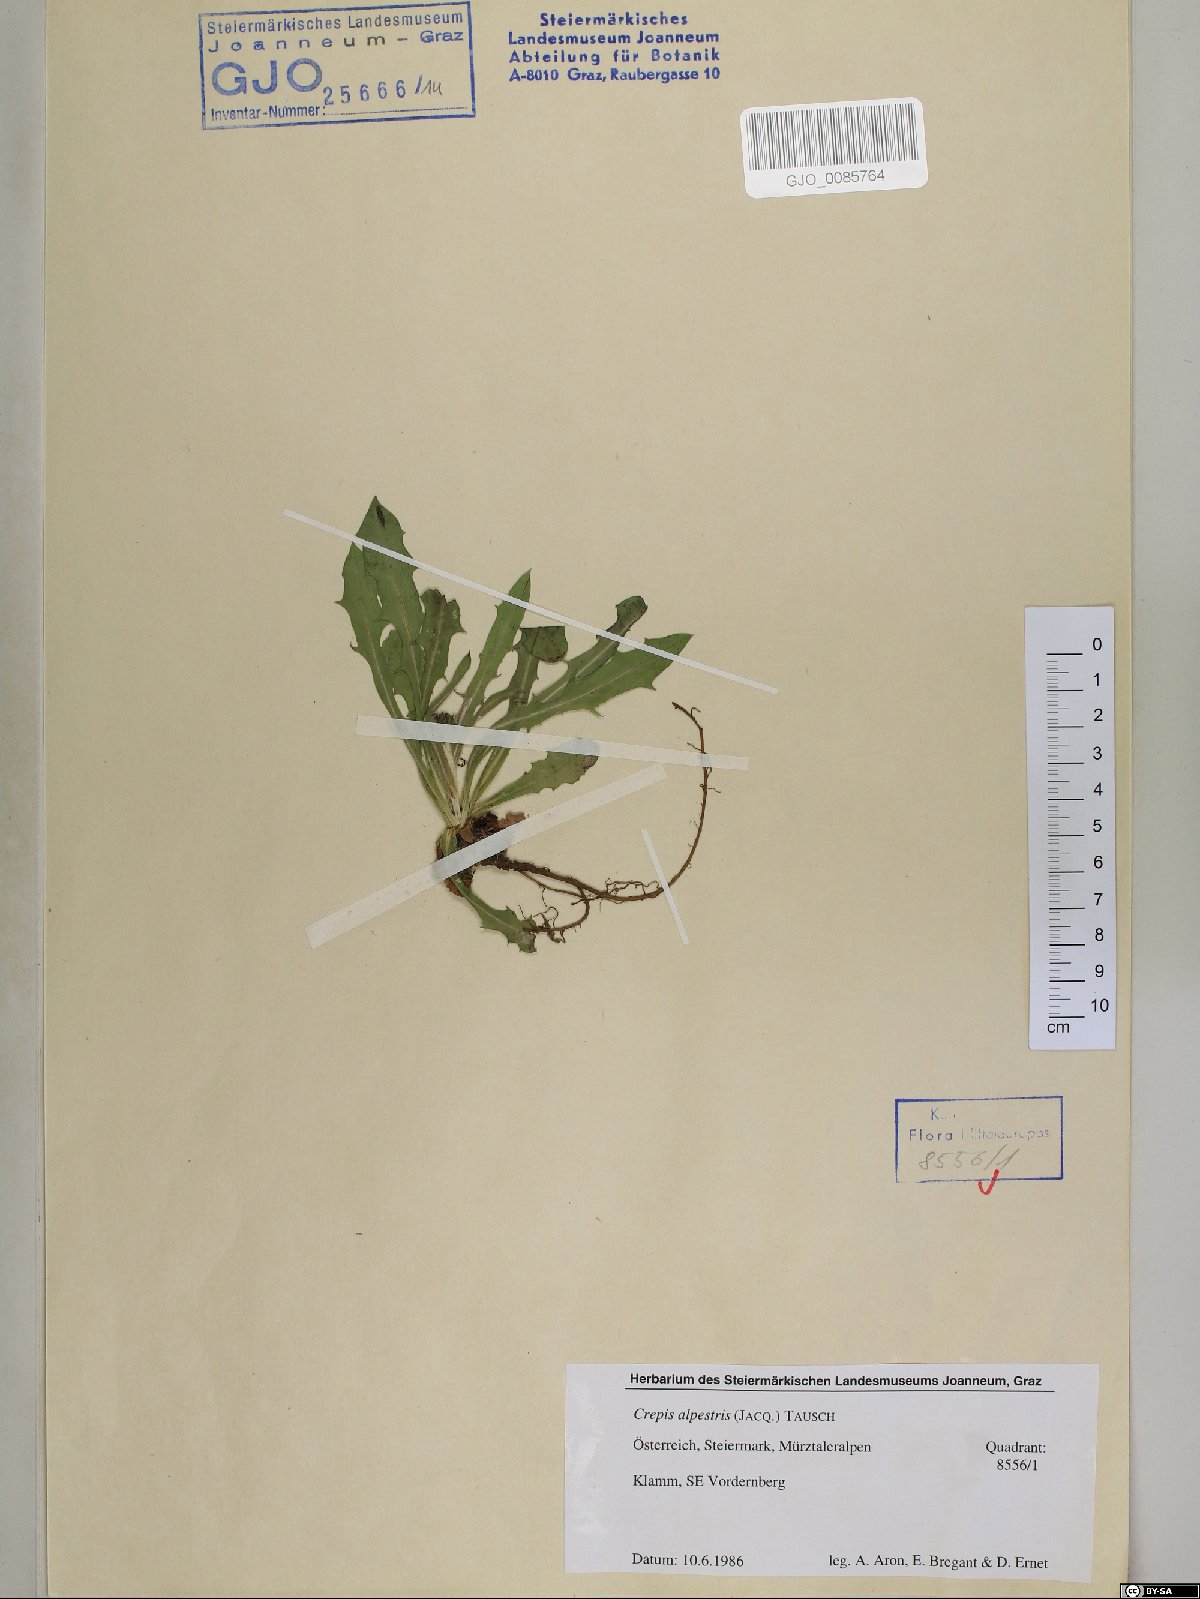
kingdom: Plantae
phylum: Tracheophyta
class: Magnoliopsida
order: Asterales
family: Asteraceae
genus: Crepis
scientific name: Crepis alpestris
